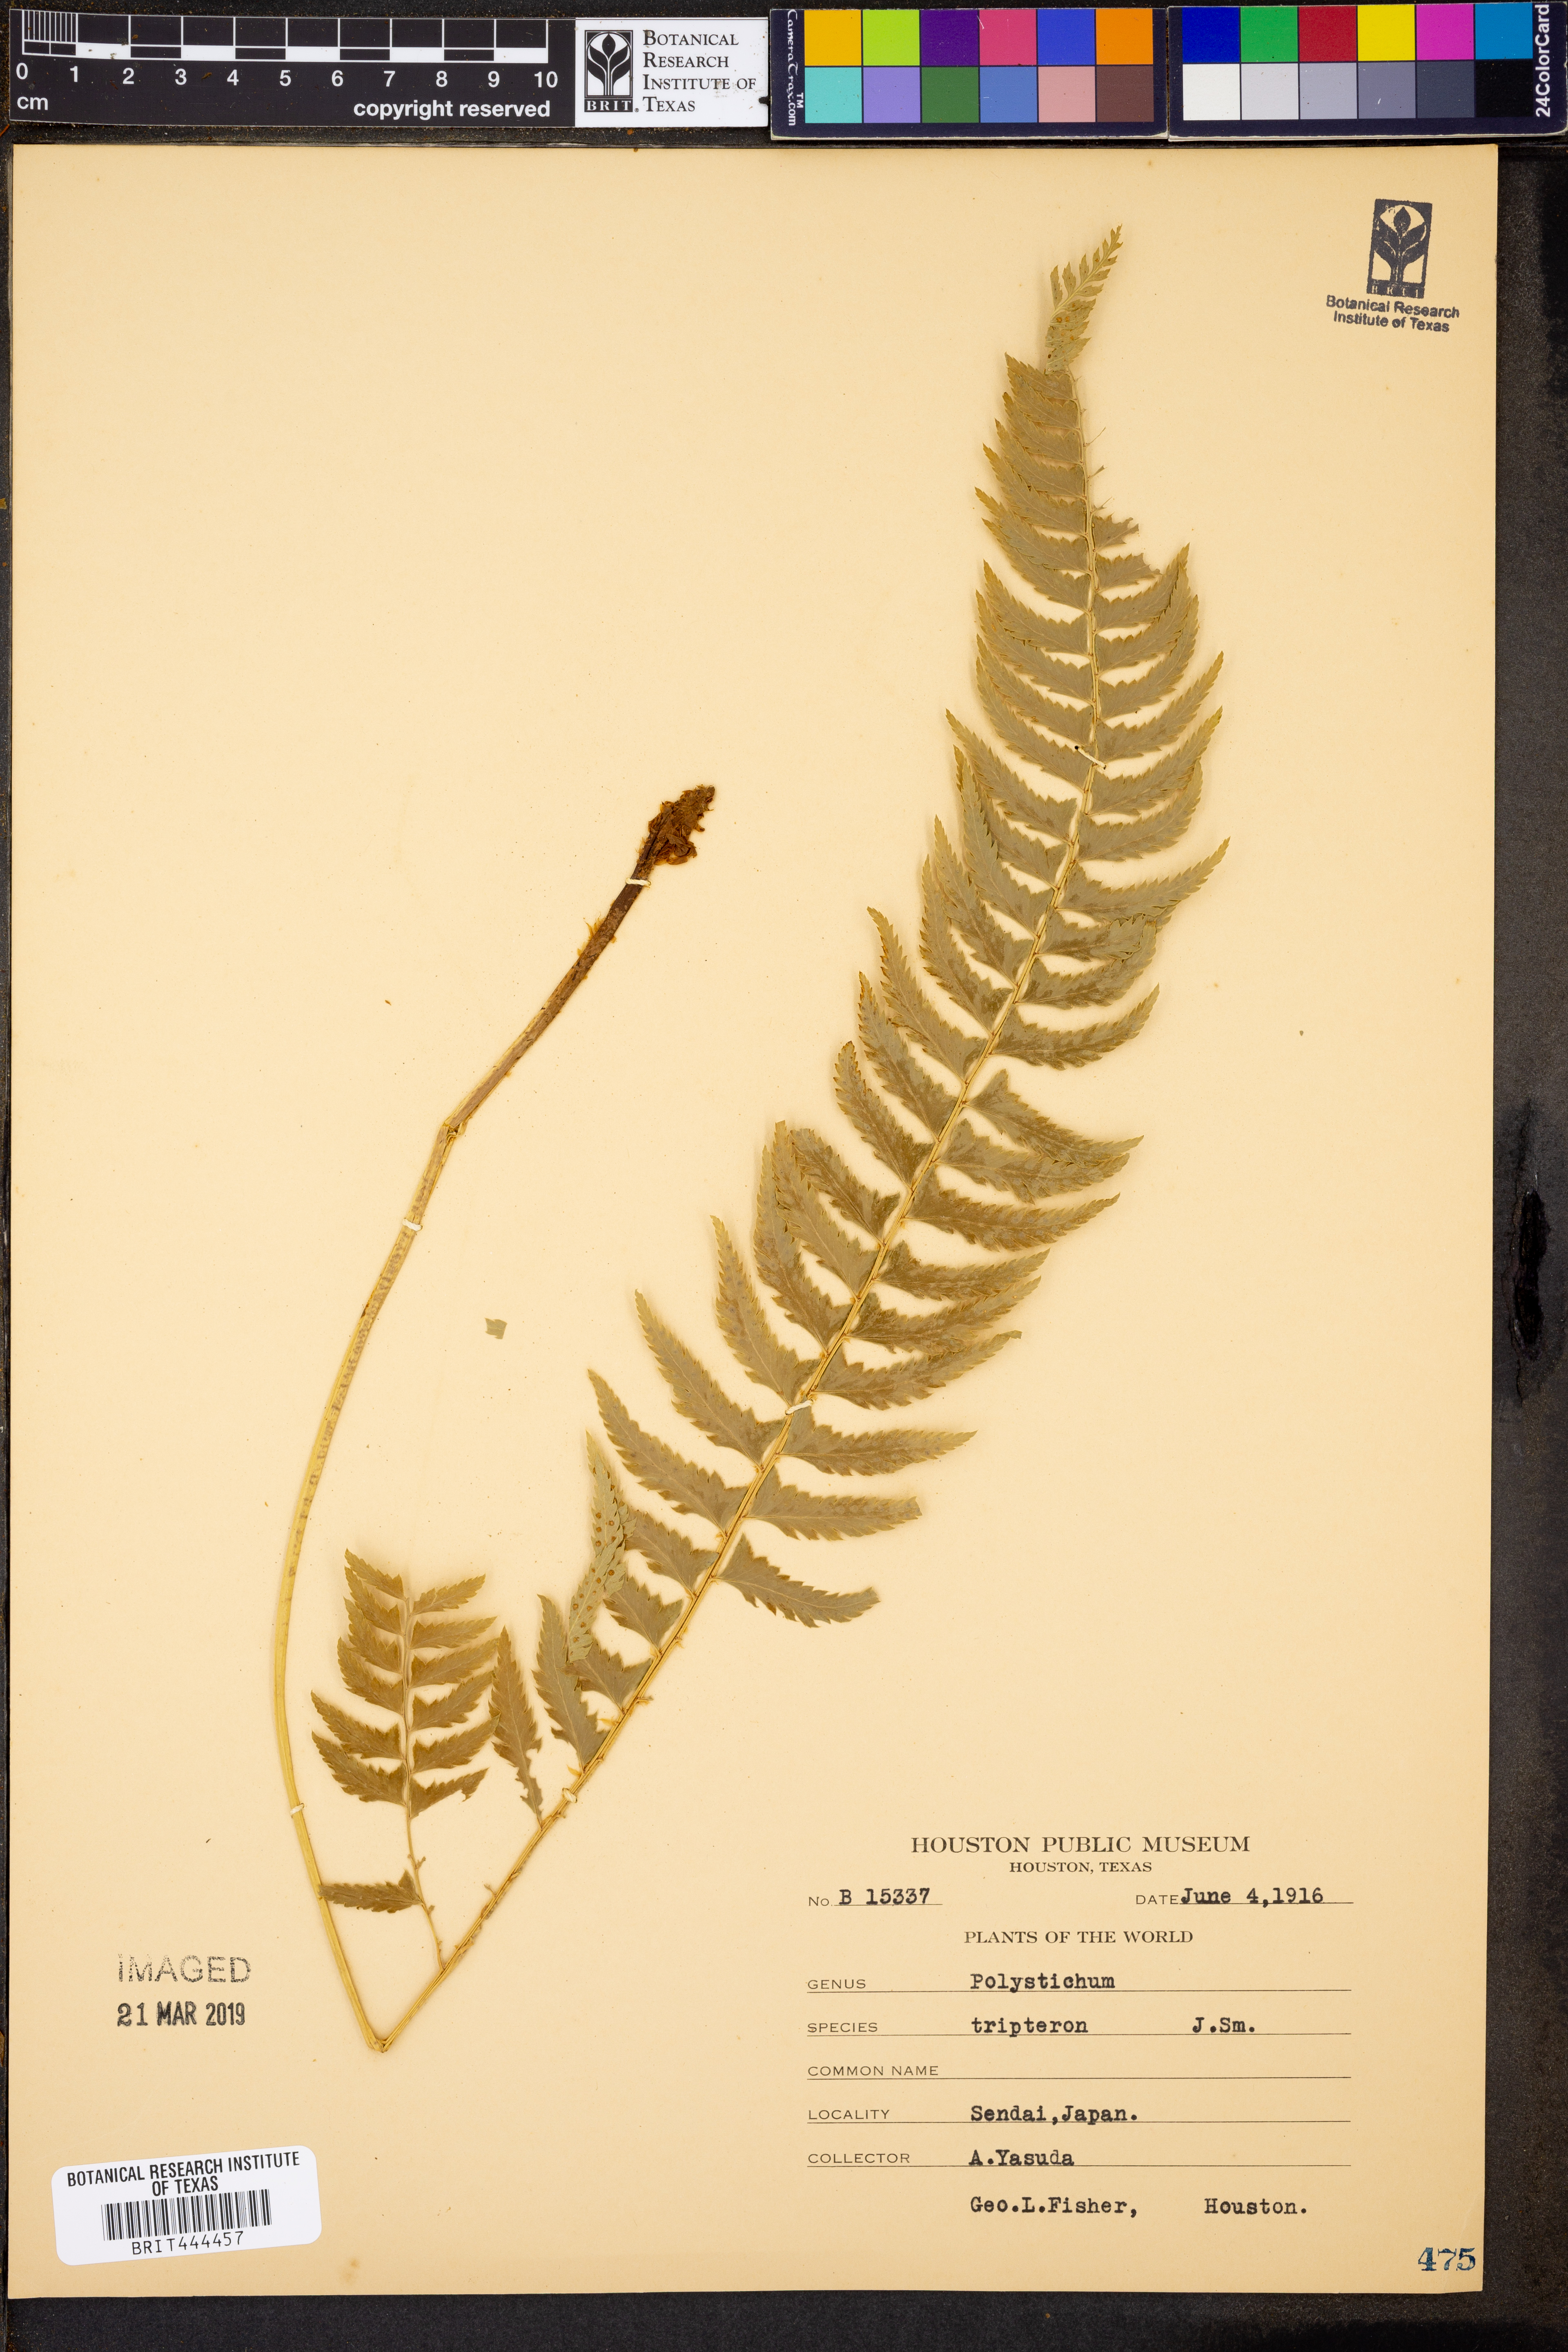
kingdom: Plantae
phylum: Tracheophyta
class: Polypodiopsida
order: Polypodiales
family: Dryopteridaceae
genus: Polystichum
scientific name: Polystichum tripteron
